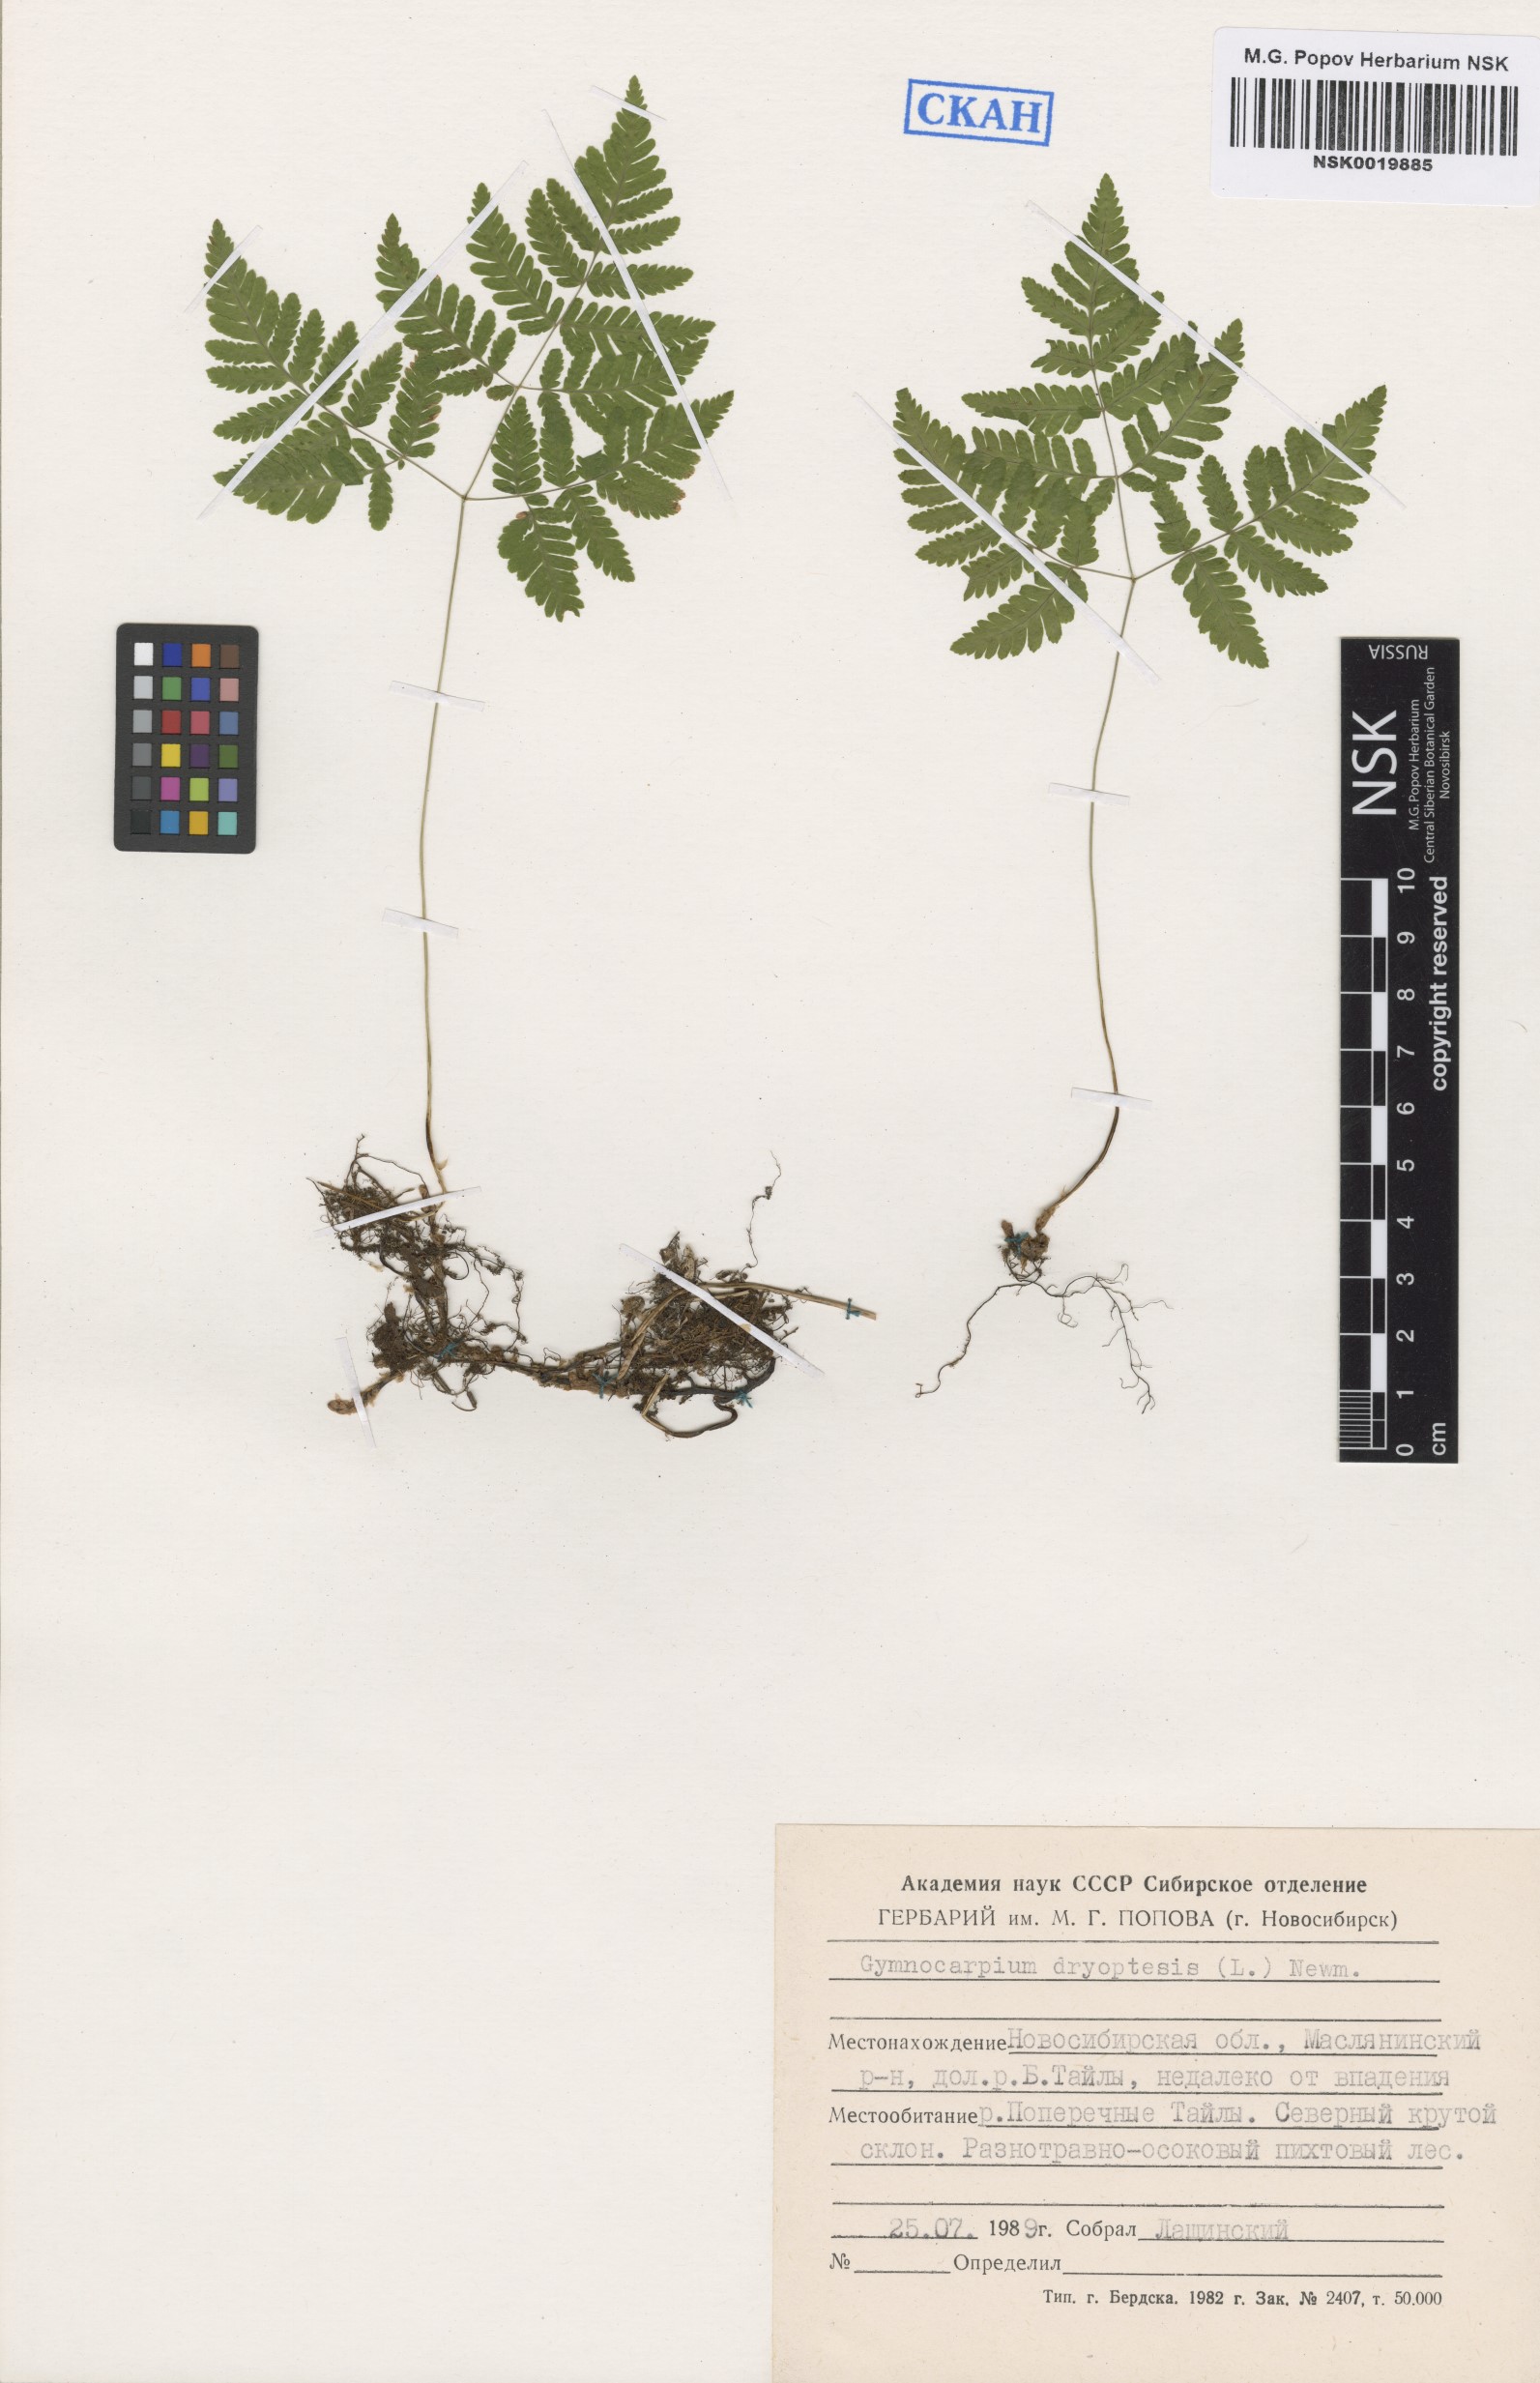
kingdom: Plantae
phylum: Tracheophyta
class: Polypodiopsida
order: Polypodiales
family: Cystopteridaceae
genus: Gymnocarpium
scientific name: Gymnocarpium dryopteris
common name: Oak fern
